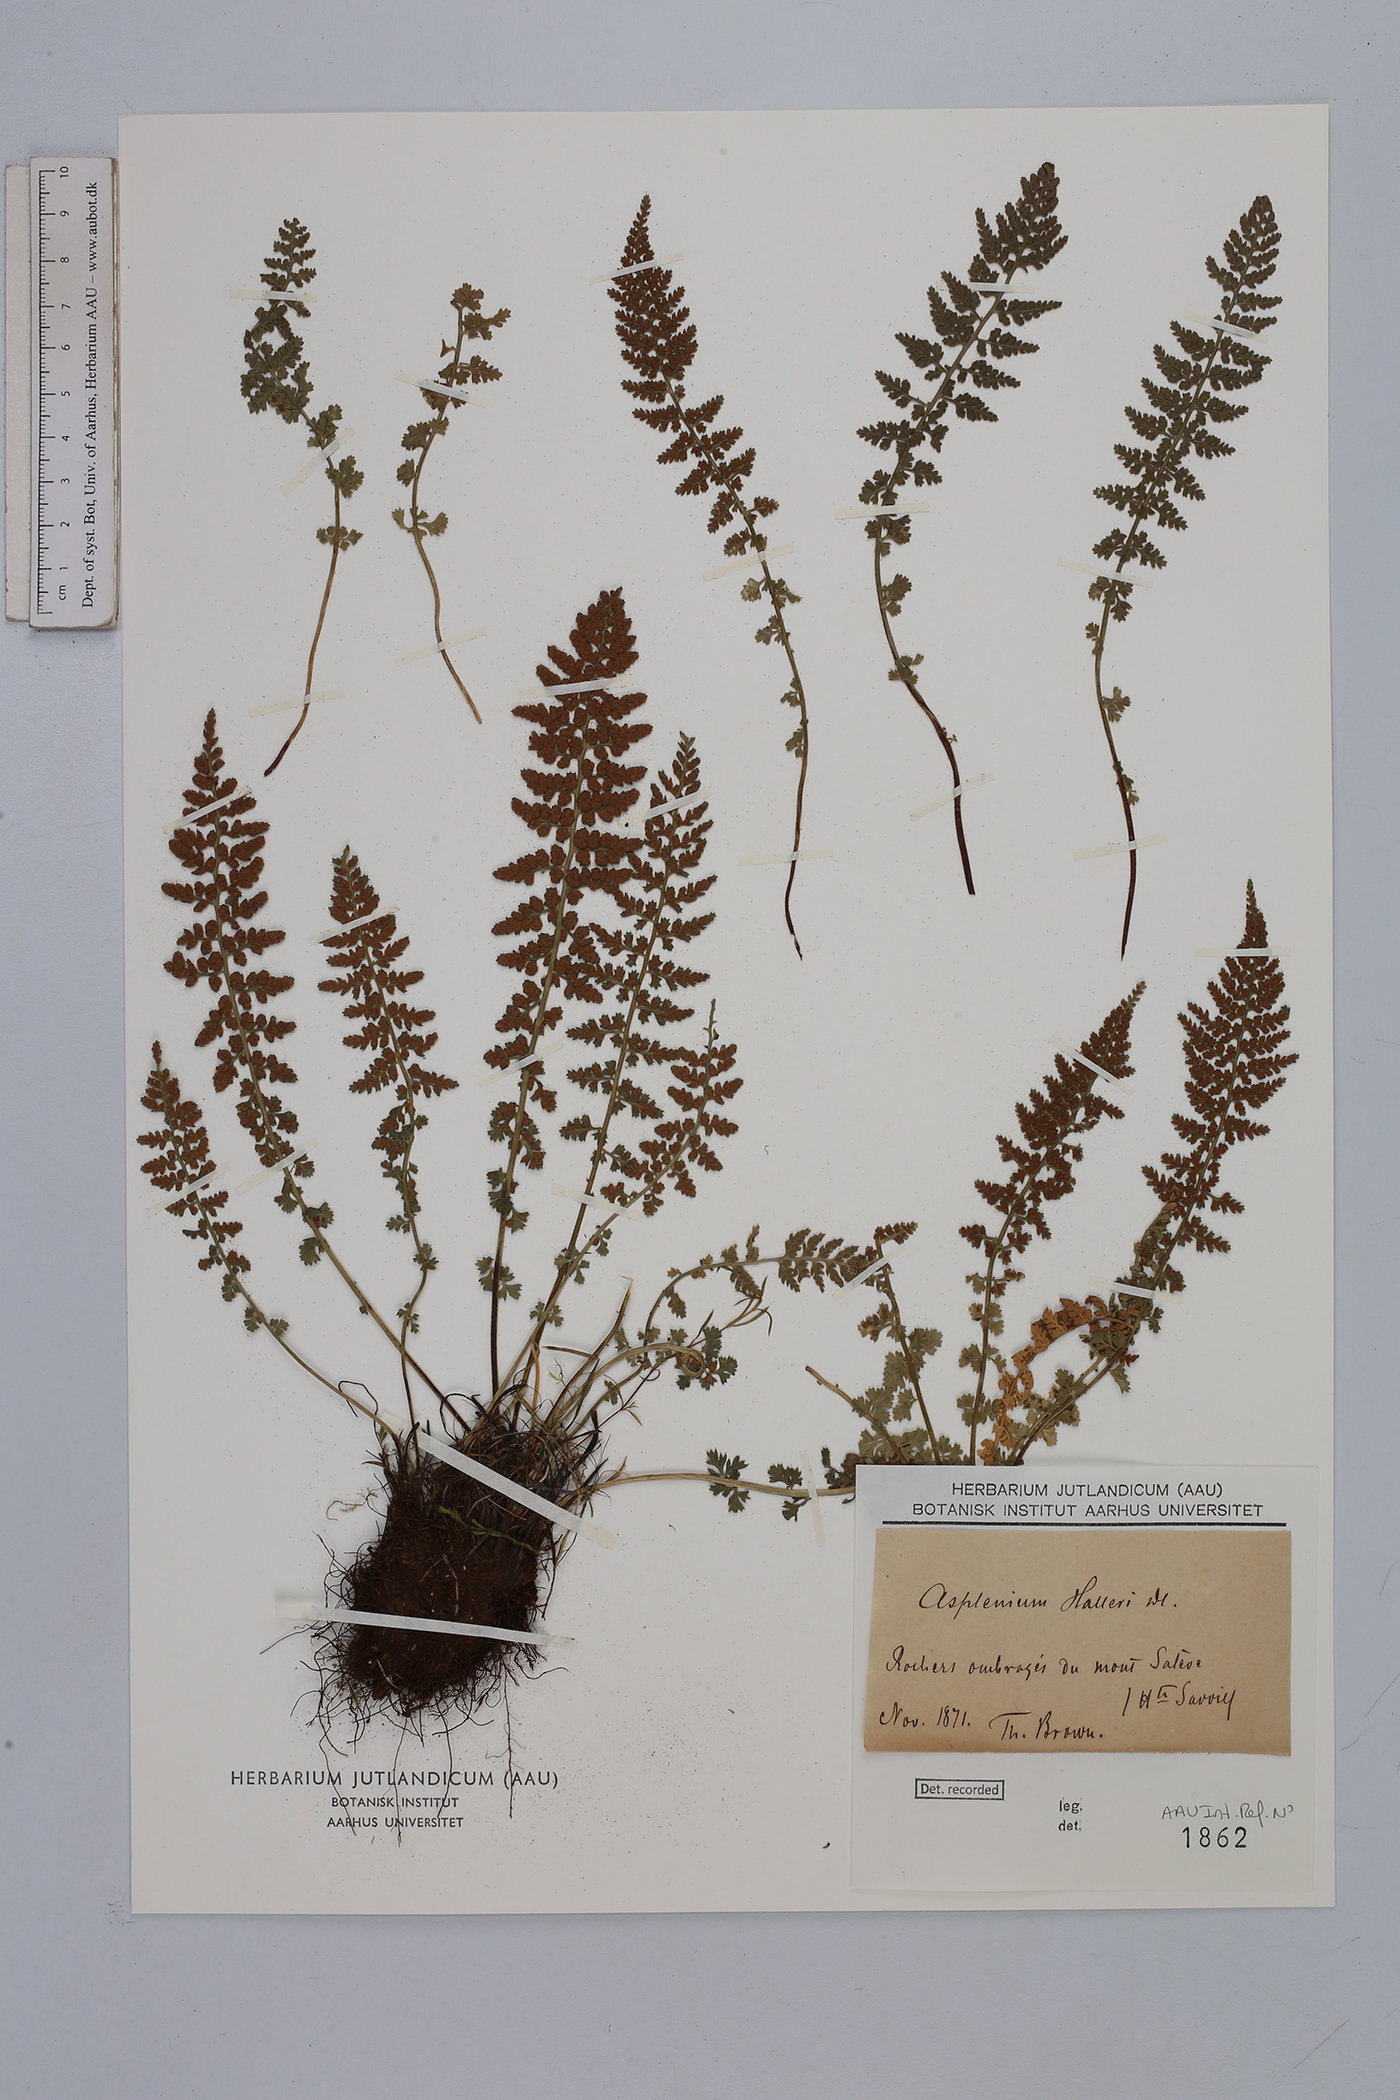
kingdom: Plantae
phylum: Tracheophyta
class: Polypodiopsida
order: Polypodiales
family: Aspleniaceae
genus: Asplenium
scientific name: Asplenium fontanum
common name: Fountain spleenwort
